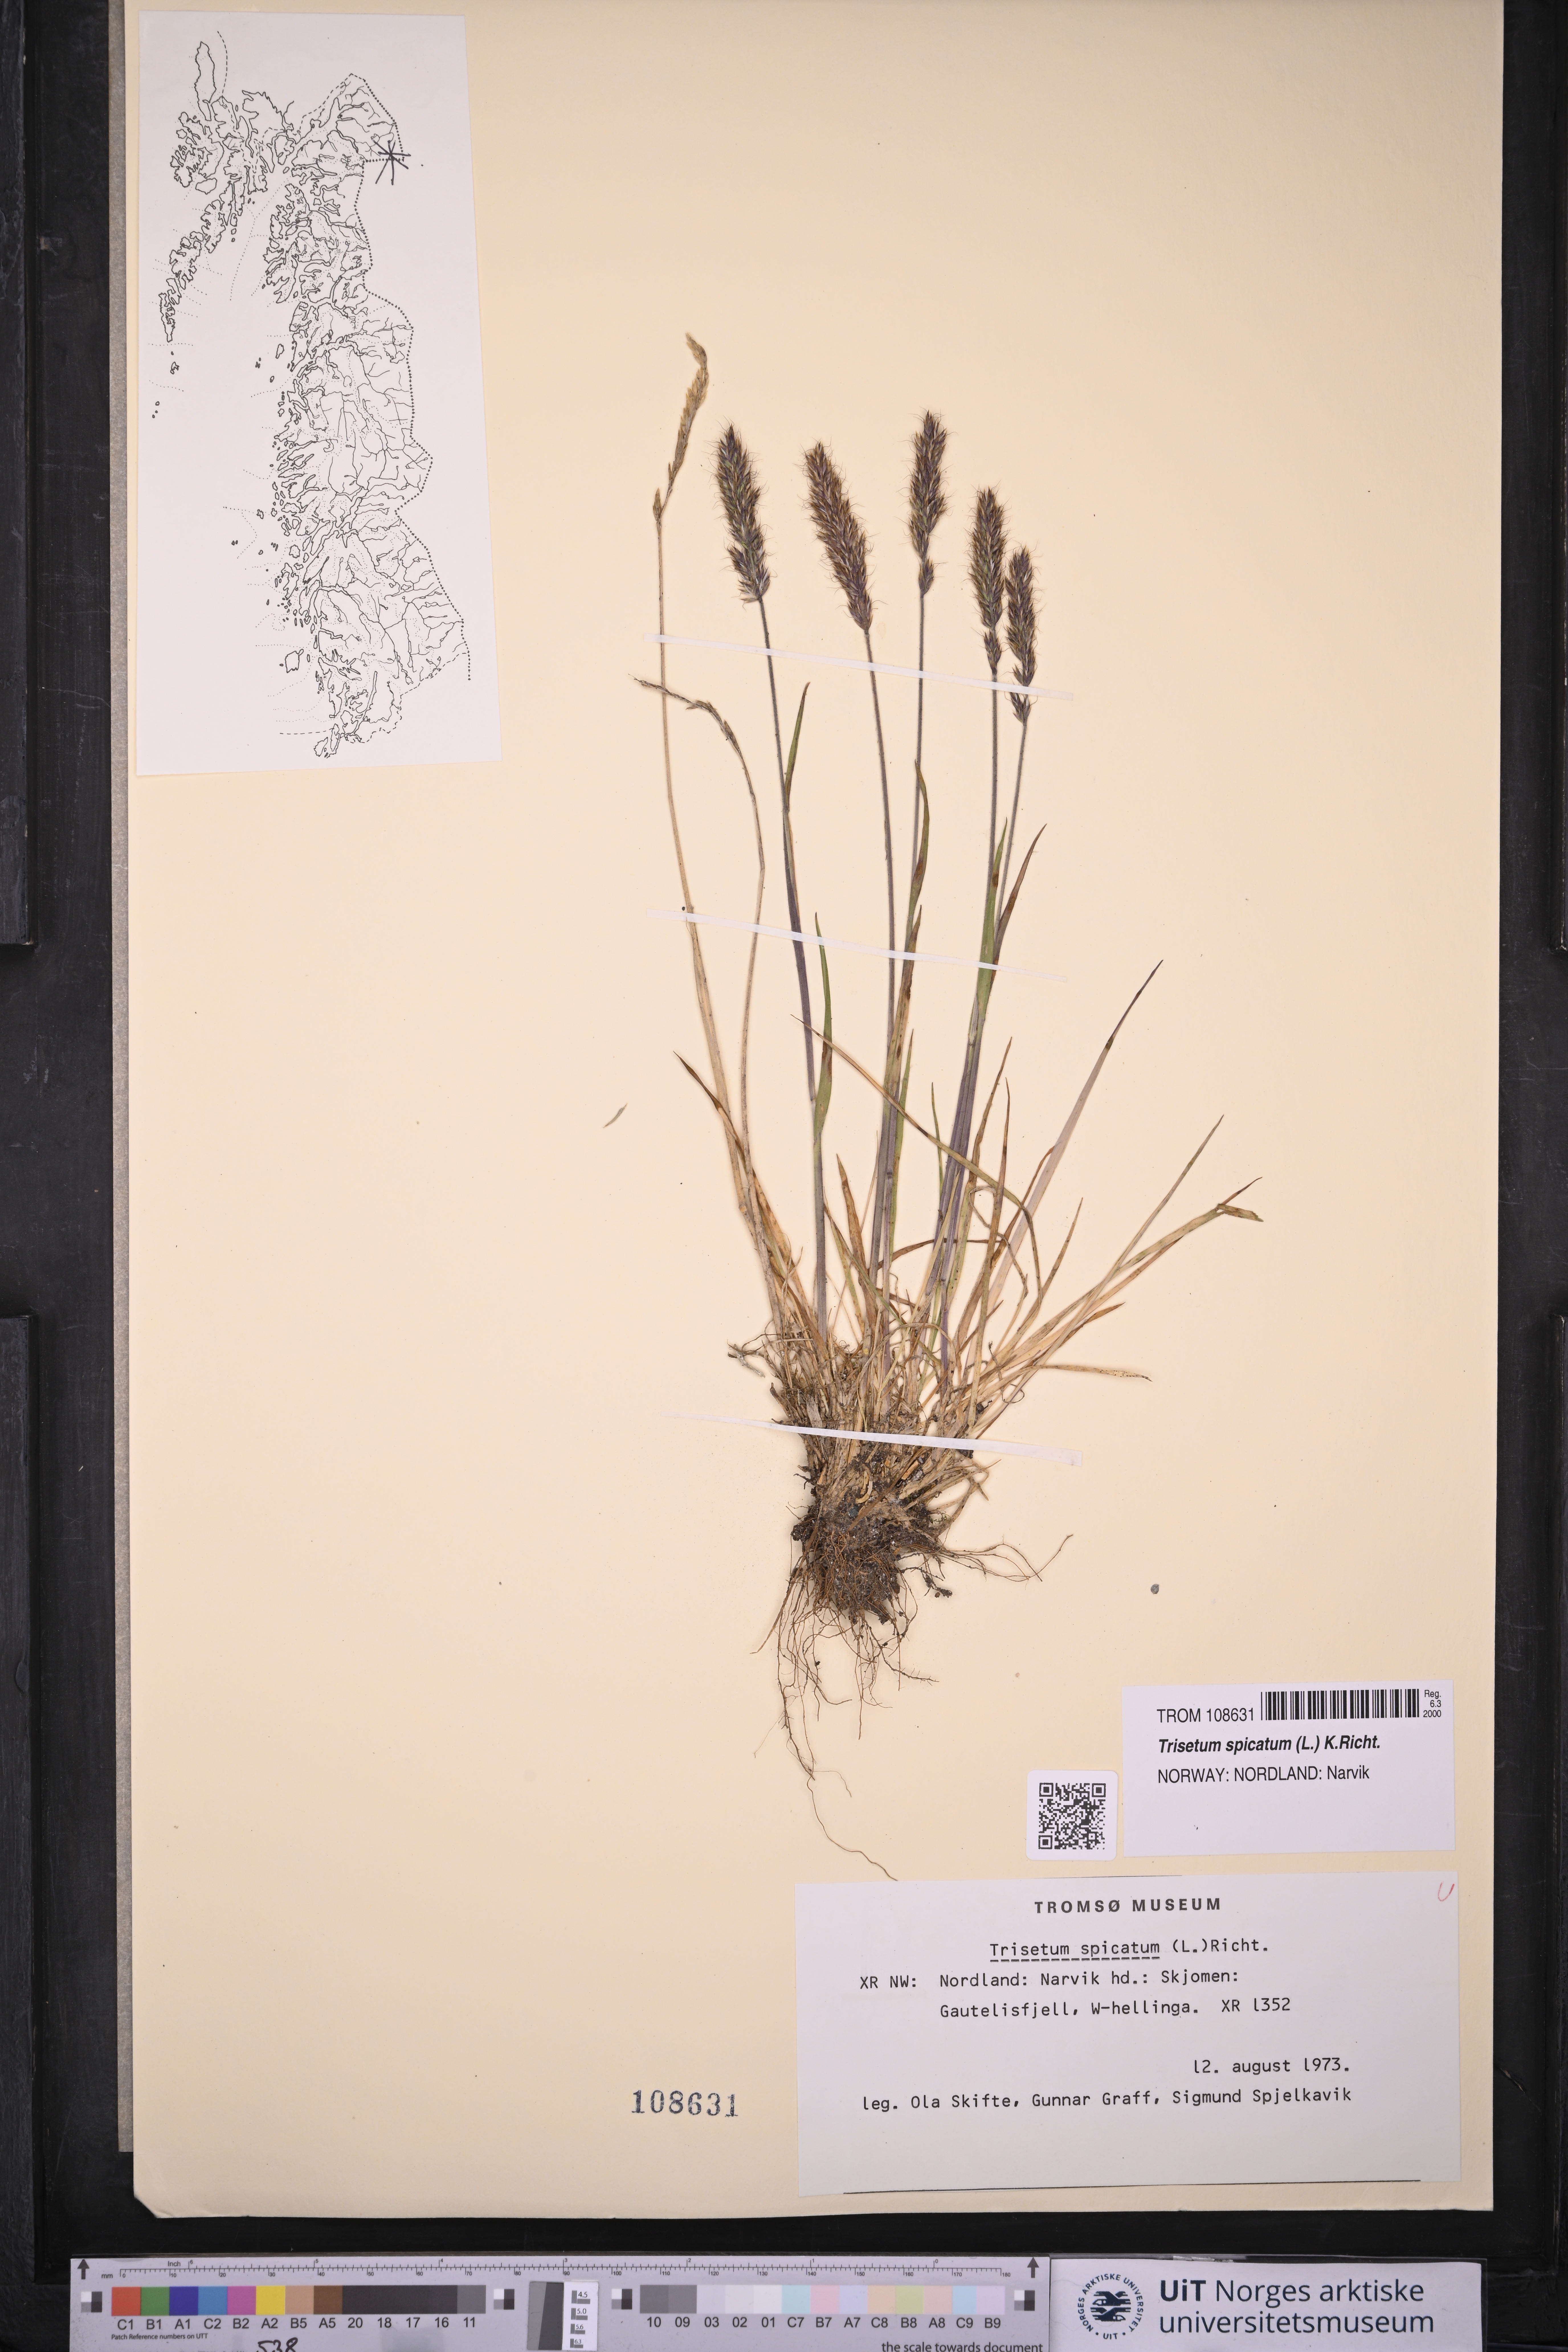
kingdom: Plantae
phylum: Tracheophyta
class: Liliopsida
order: Poales
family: Poaceae
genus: Koeleria
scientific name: Koeleria spicata
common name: Mountain trisetum
